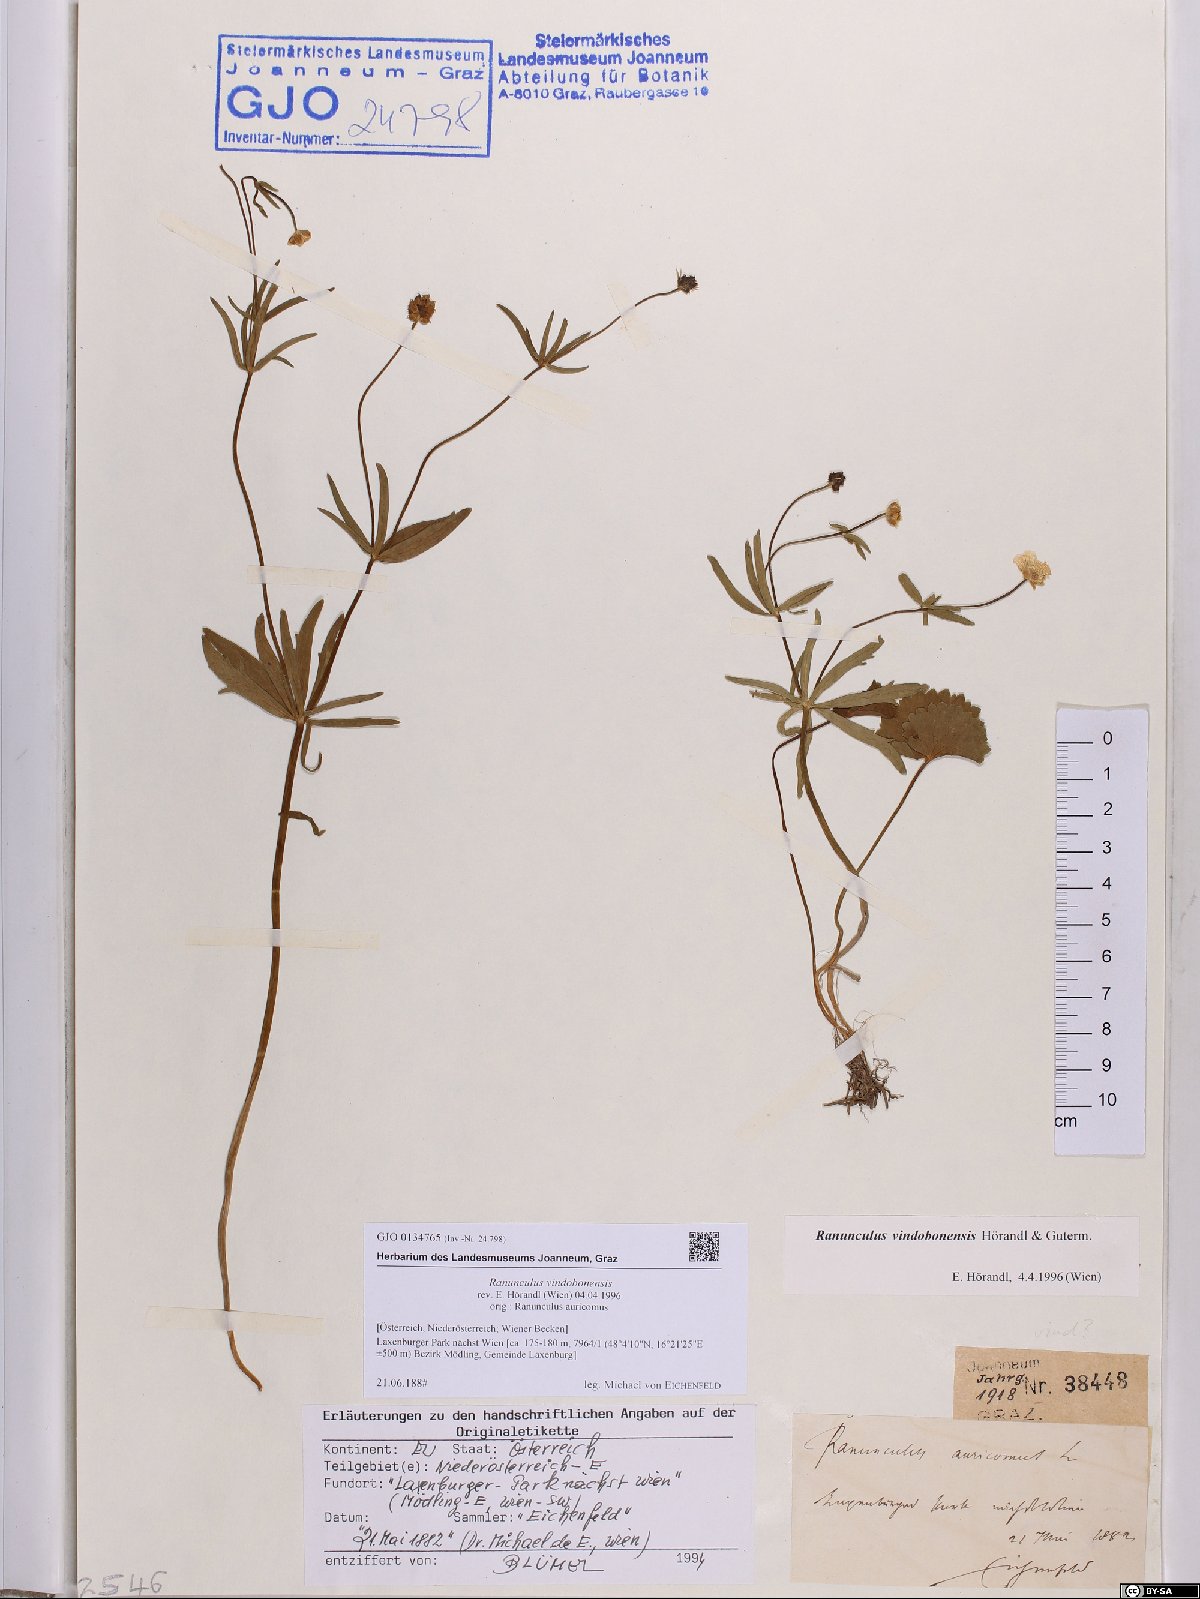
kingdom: Plantae
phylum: Tracheophyta
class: Magnoliopsida
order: Ranunculales
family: Ranunculaceae
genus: Ranunculus
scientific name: Ranunculus vindobonensis
